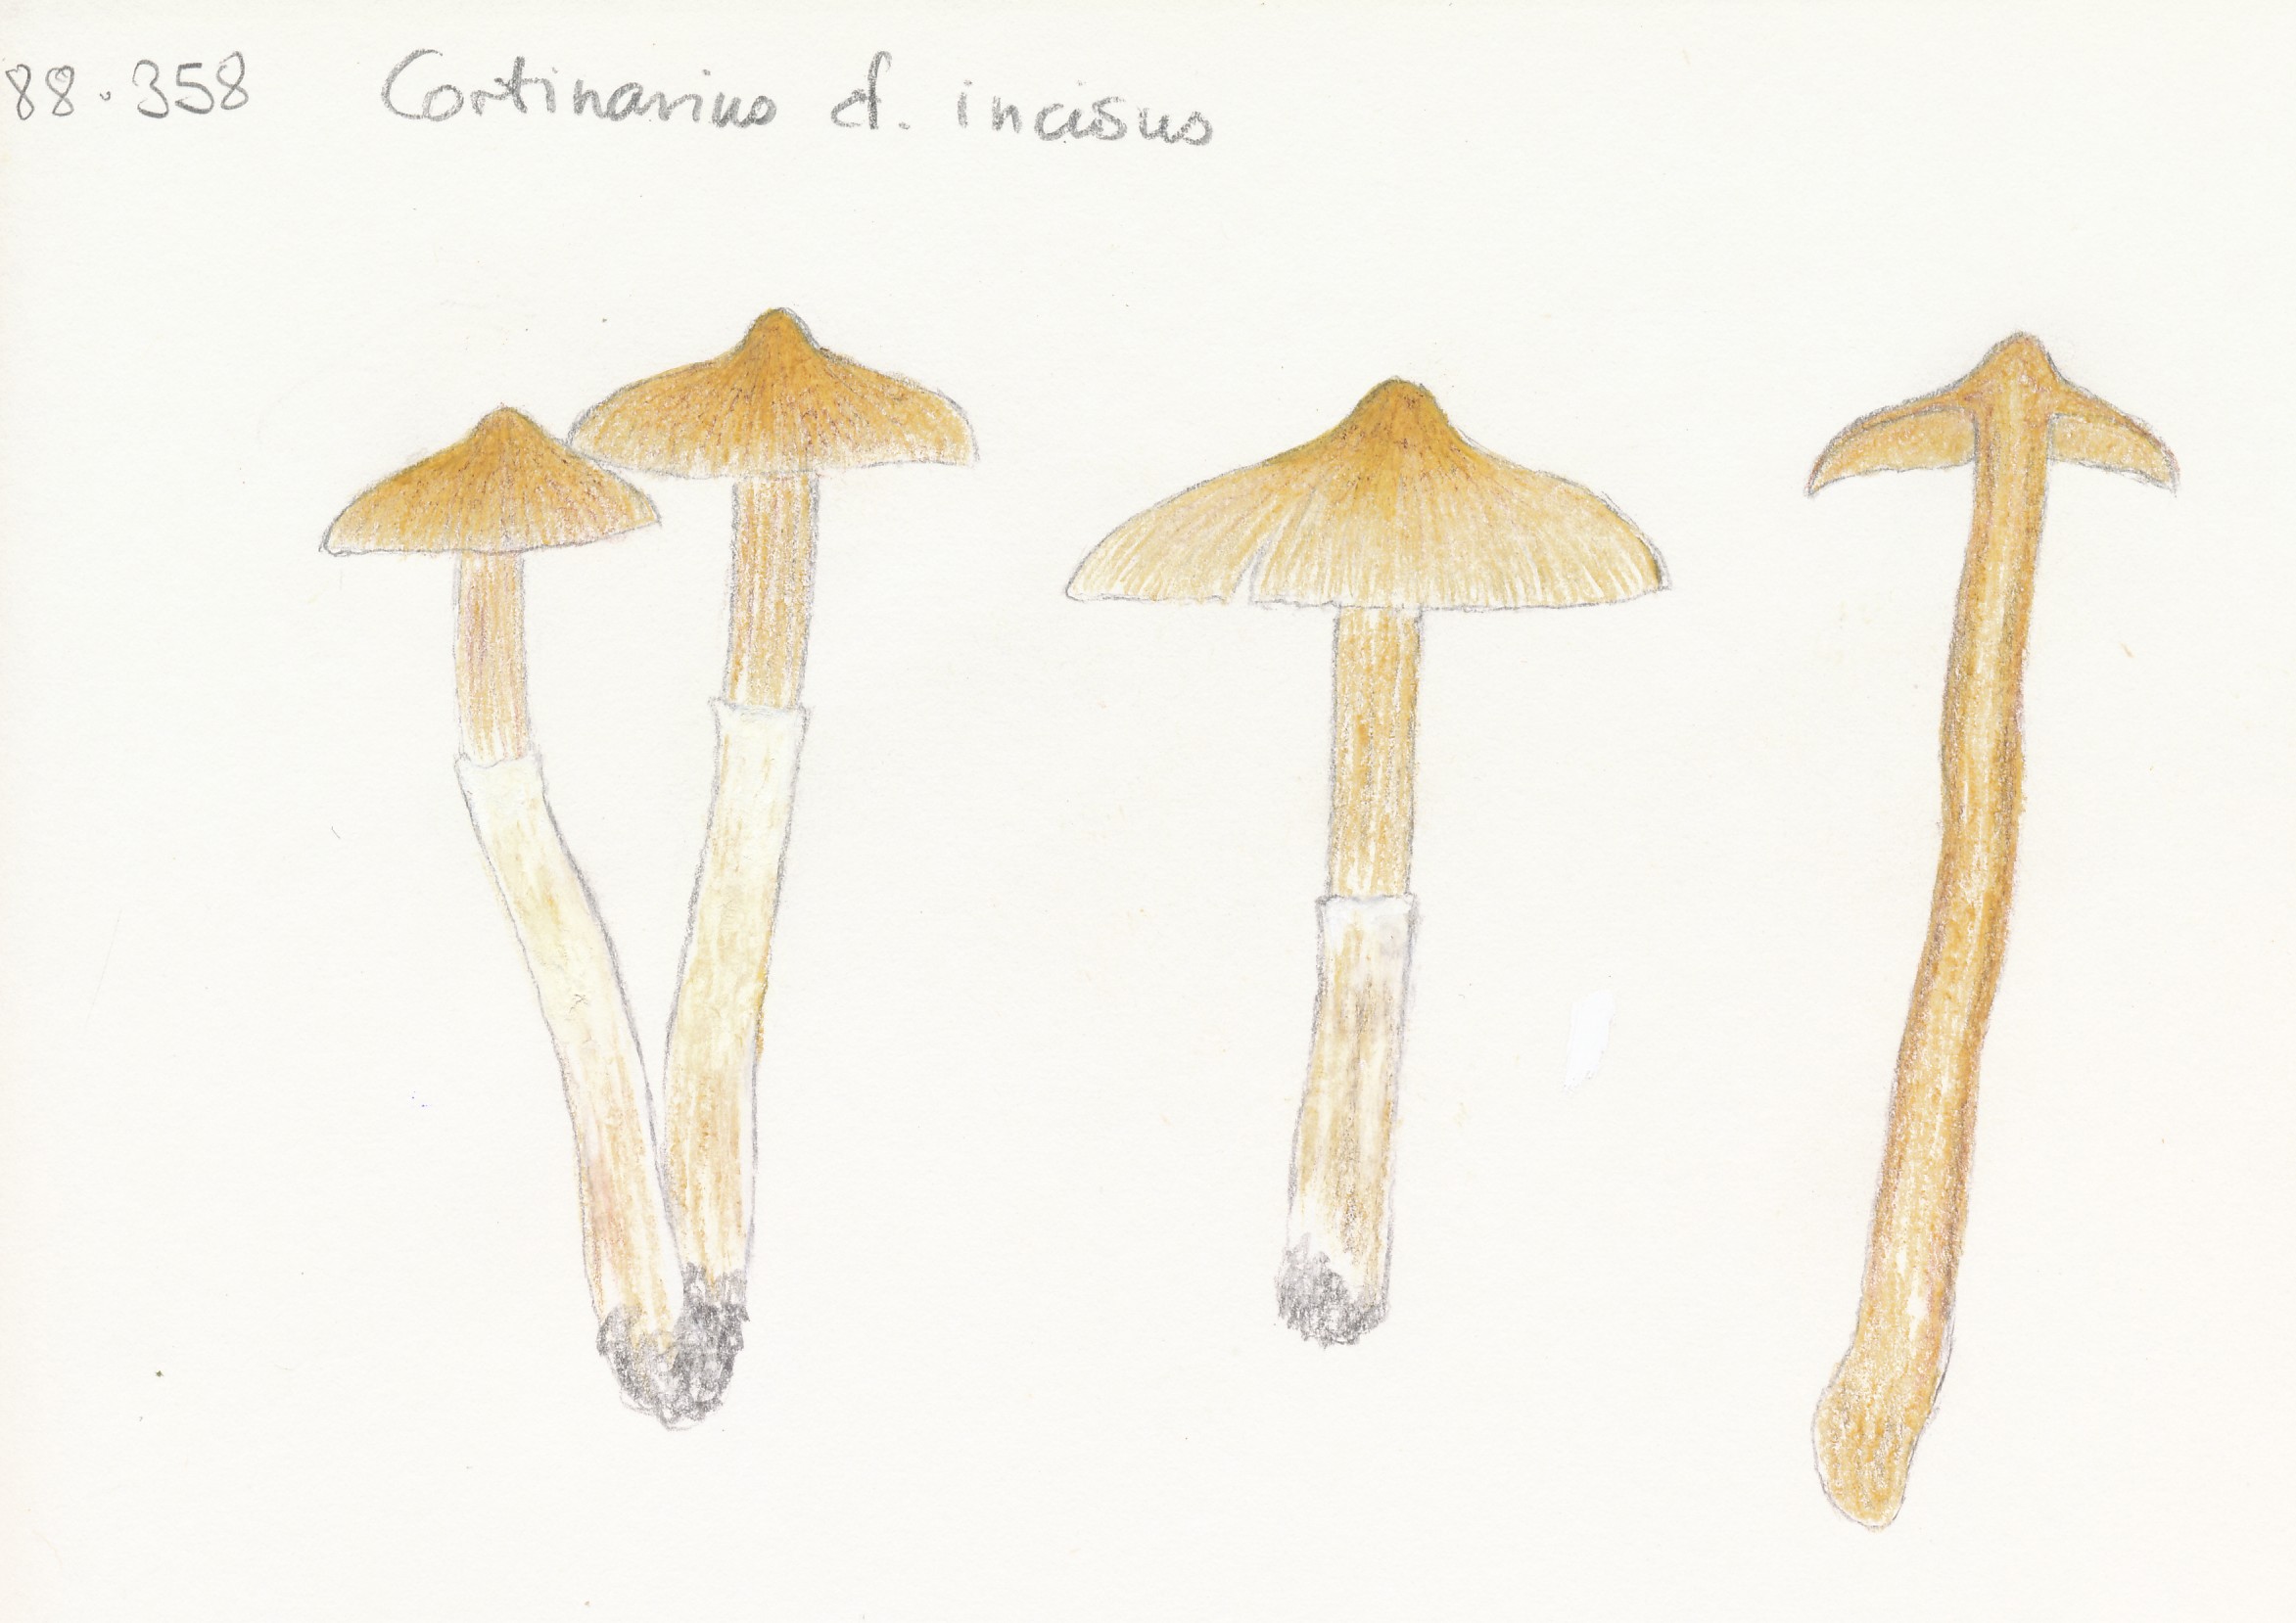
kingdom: Fungi
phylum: Basidiomycota
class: Agaricomycetes
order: Agaricales
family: Cortinariaceae
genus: Cortinarius
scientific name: Cortinarius hemitrichus
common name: hvidfnugget slørhat
